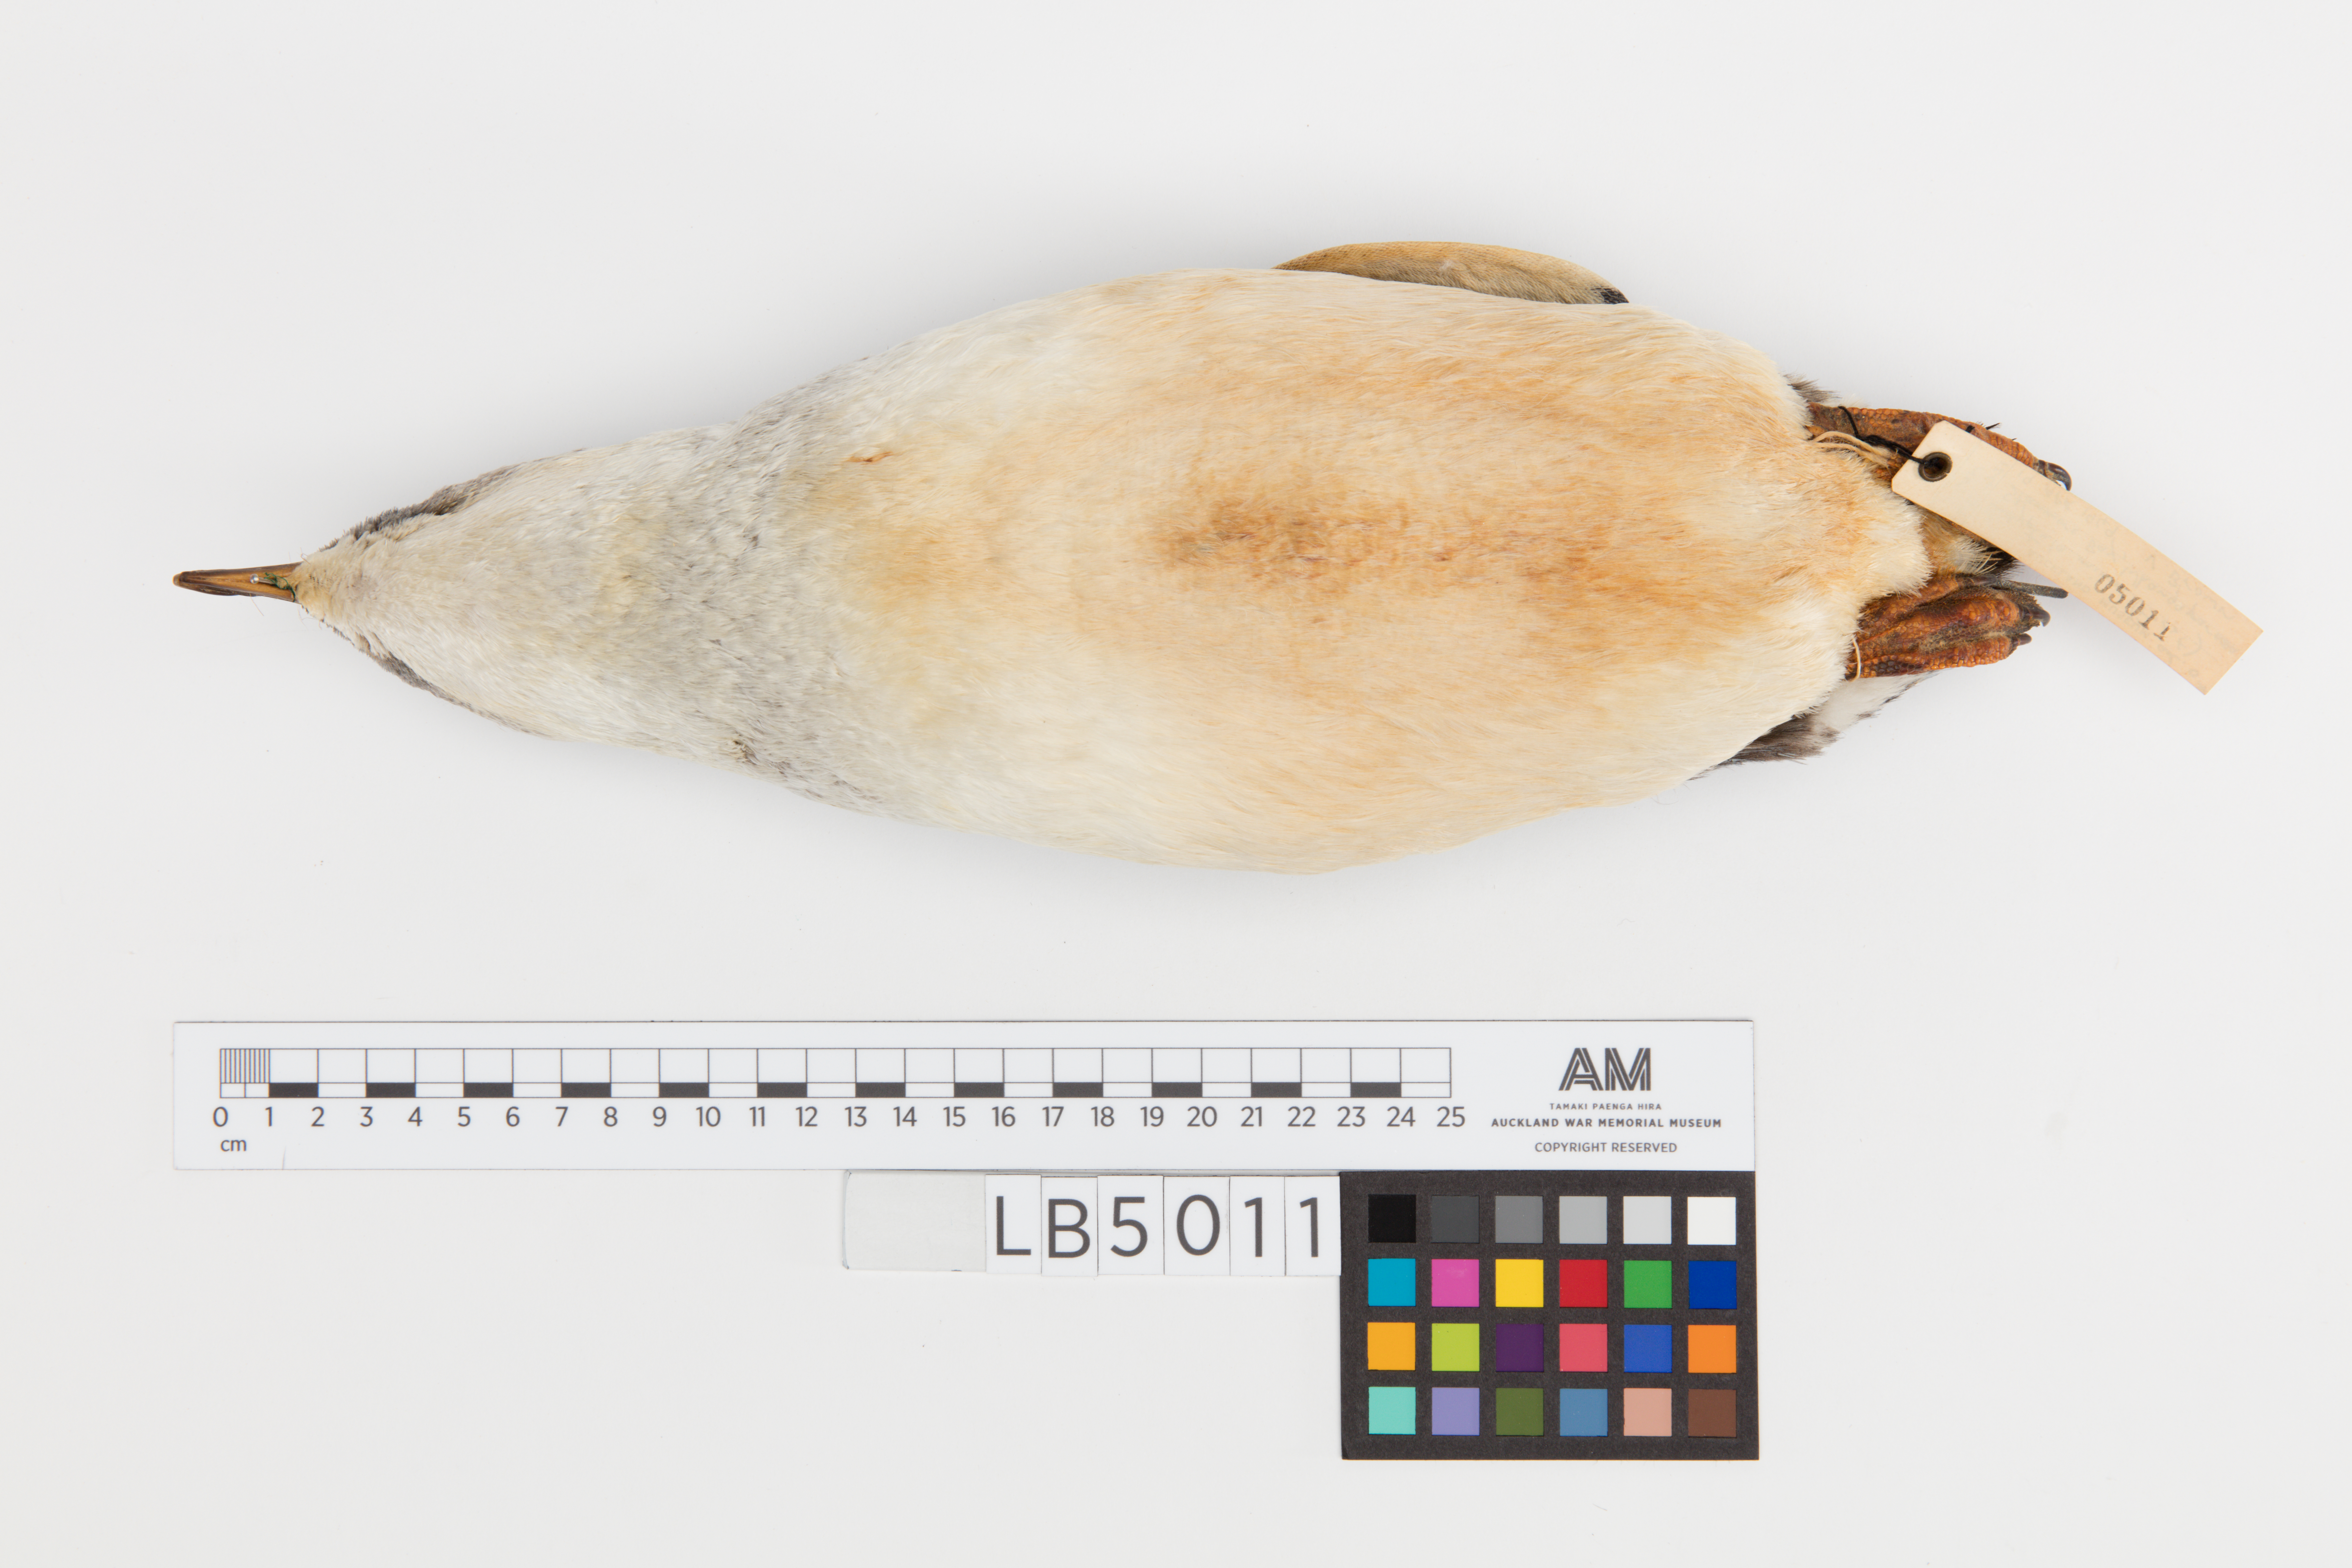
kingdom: Animalia
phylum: Chordata
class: Aves
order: Sphenisciformes
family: Spheniscidae
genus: Eudyptula
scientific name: Eudyptula minor
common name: Little penguin
